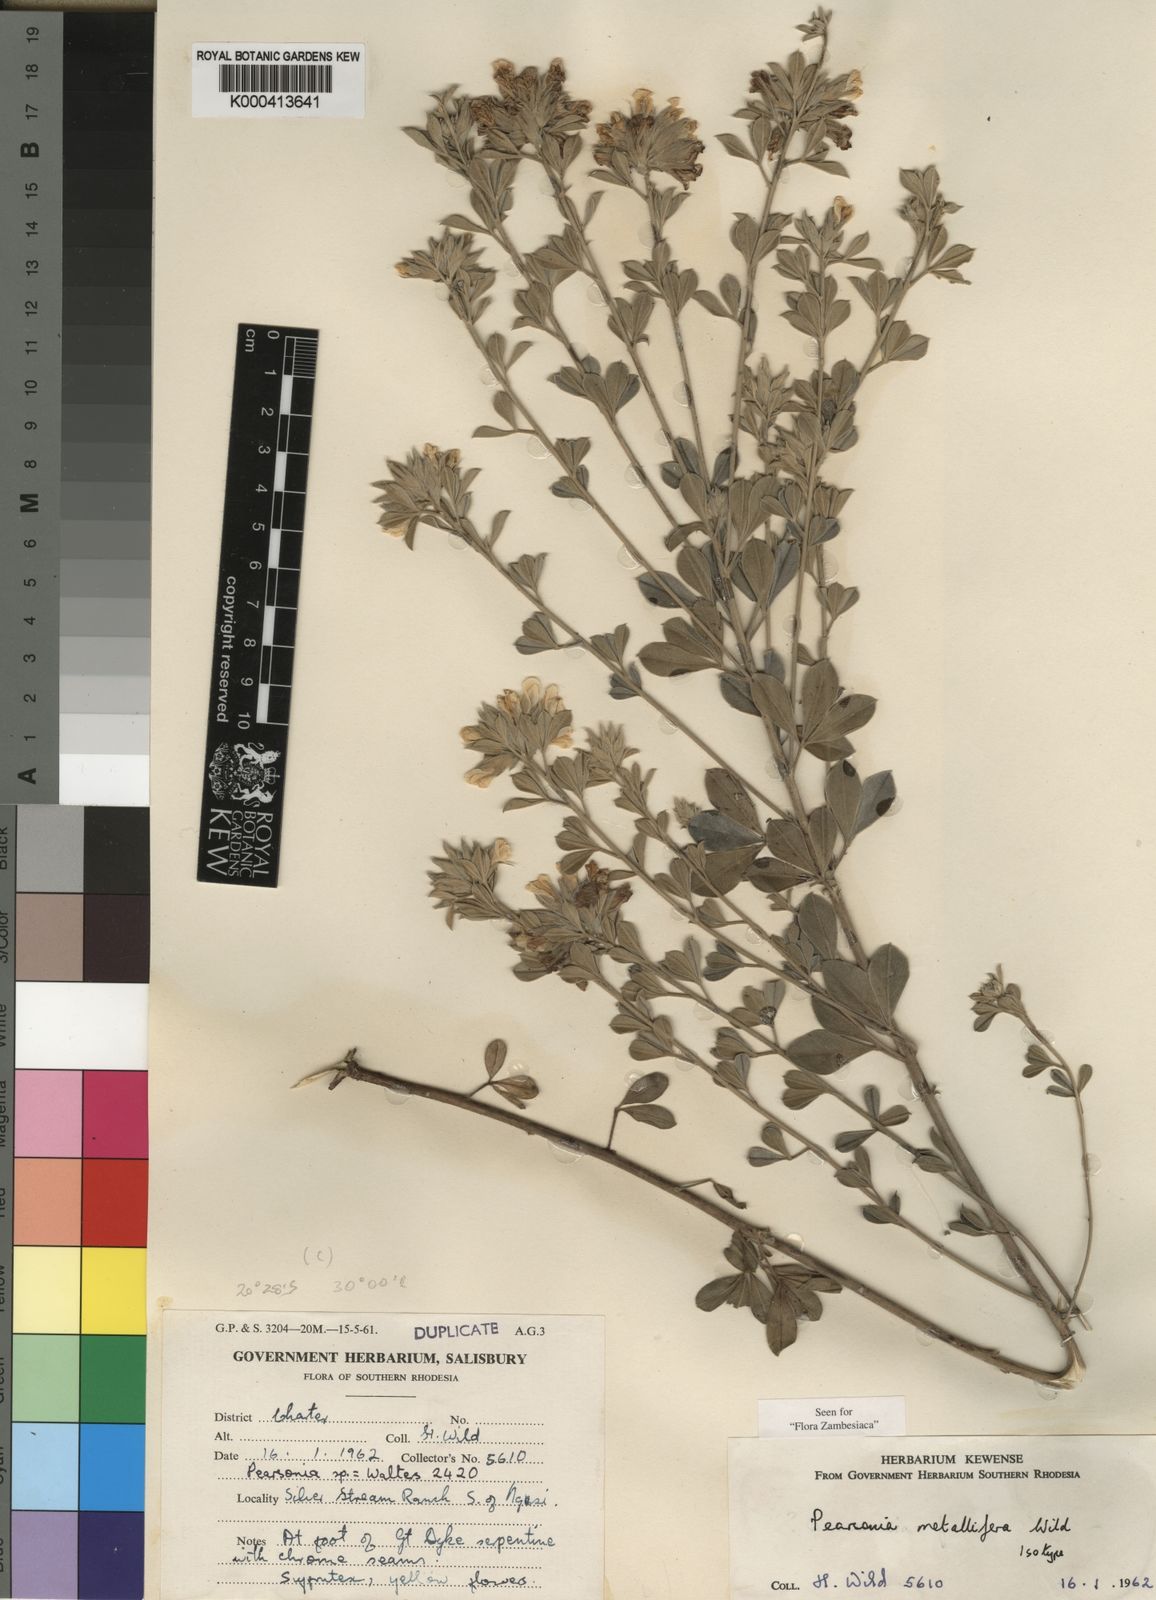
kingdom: Plantae
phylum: Tracheophyta
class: Magnoliopsida
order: Fabales
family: Fabaceae
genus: Pearsonia
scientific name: Pearsonia metallifera
